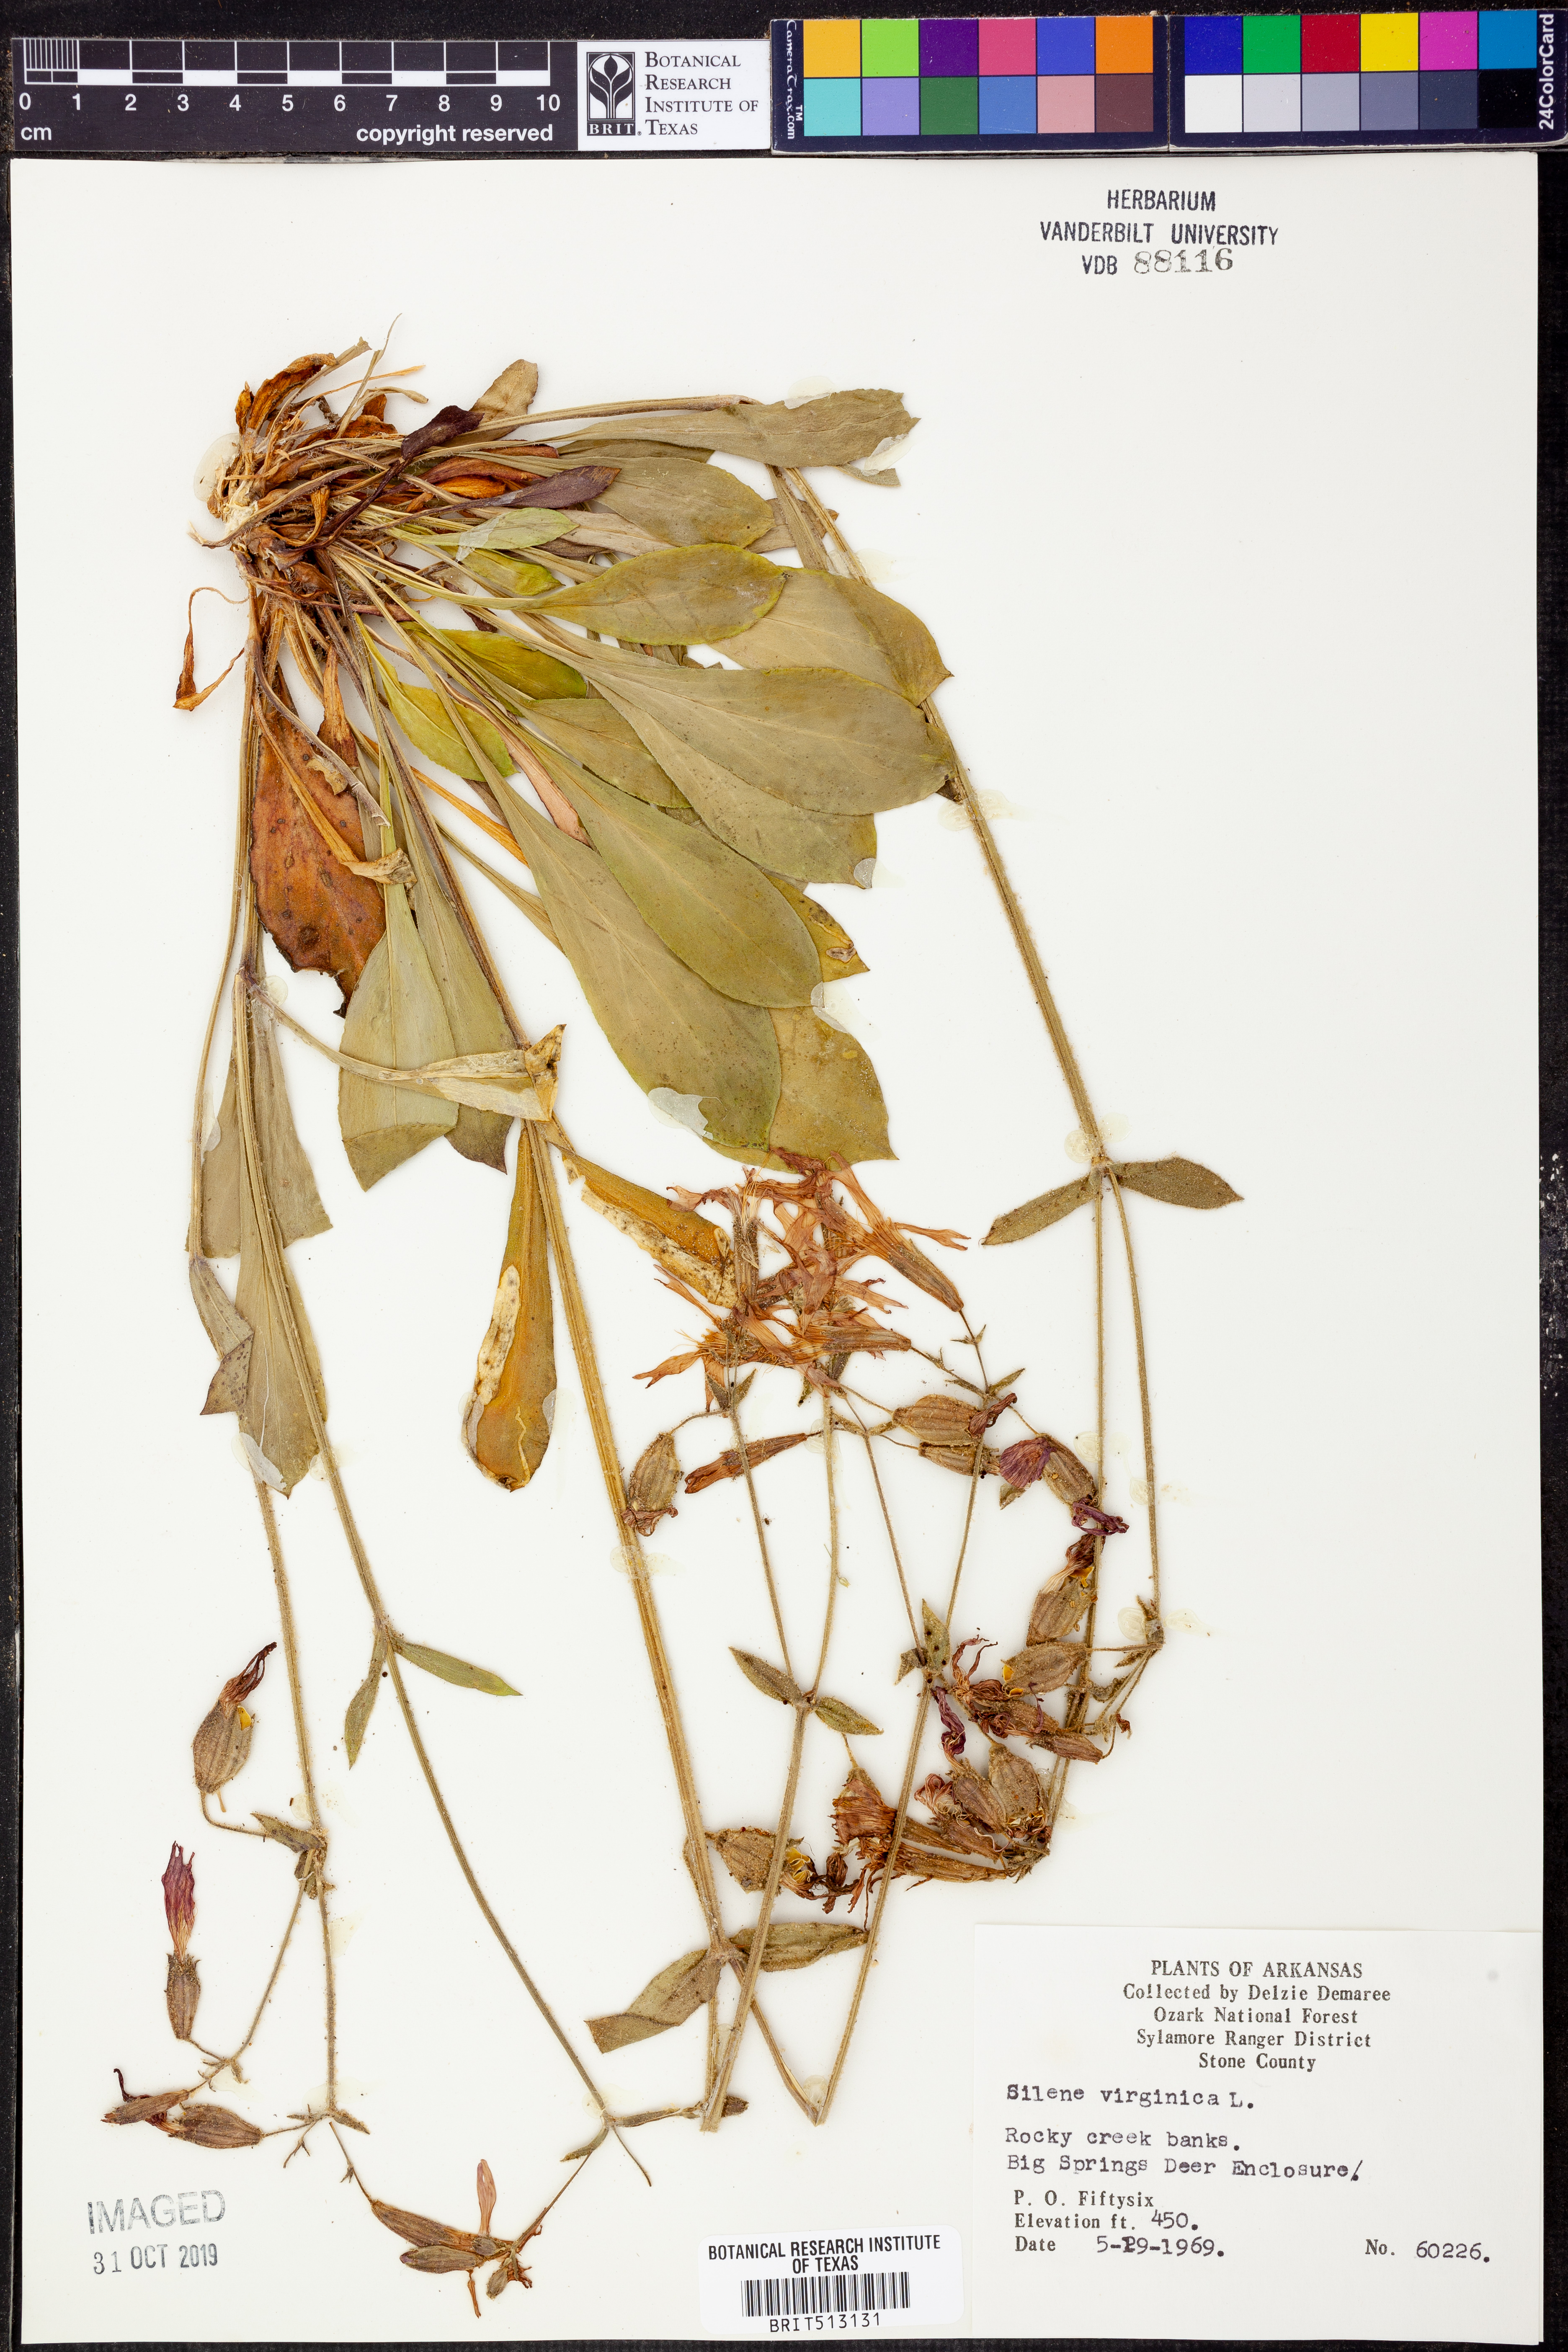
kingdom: Plantae
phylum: Tracheophyta
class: Magnoliopsida
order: Caryophyllales
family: Caryophyllaceae
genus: Silene
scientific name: Silene virginica
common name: Fire-pink
